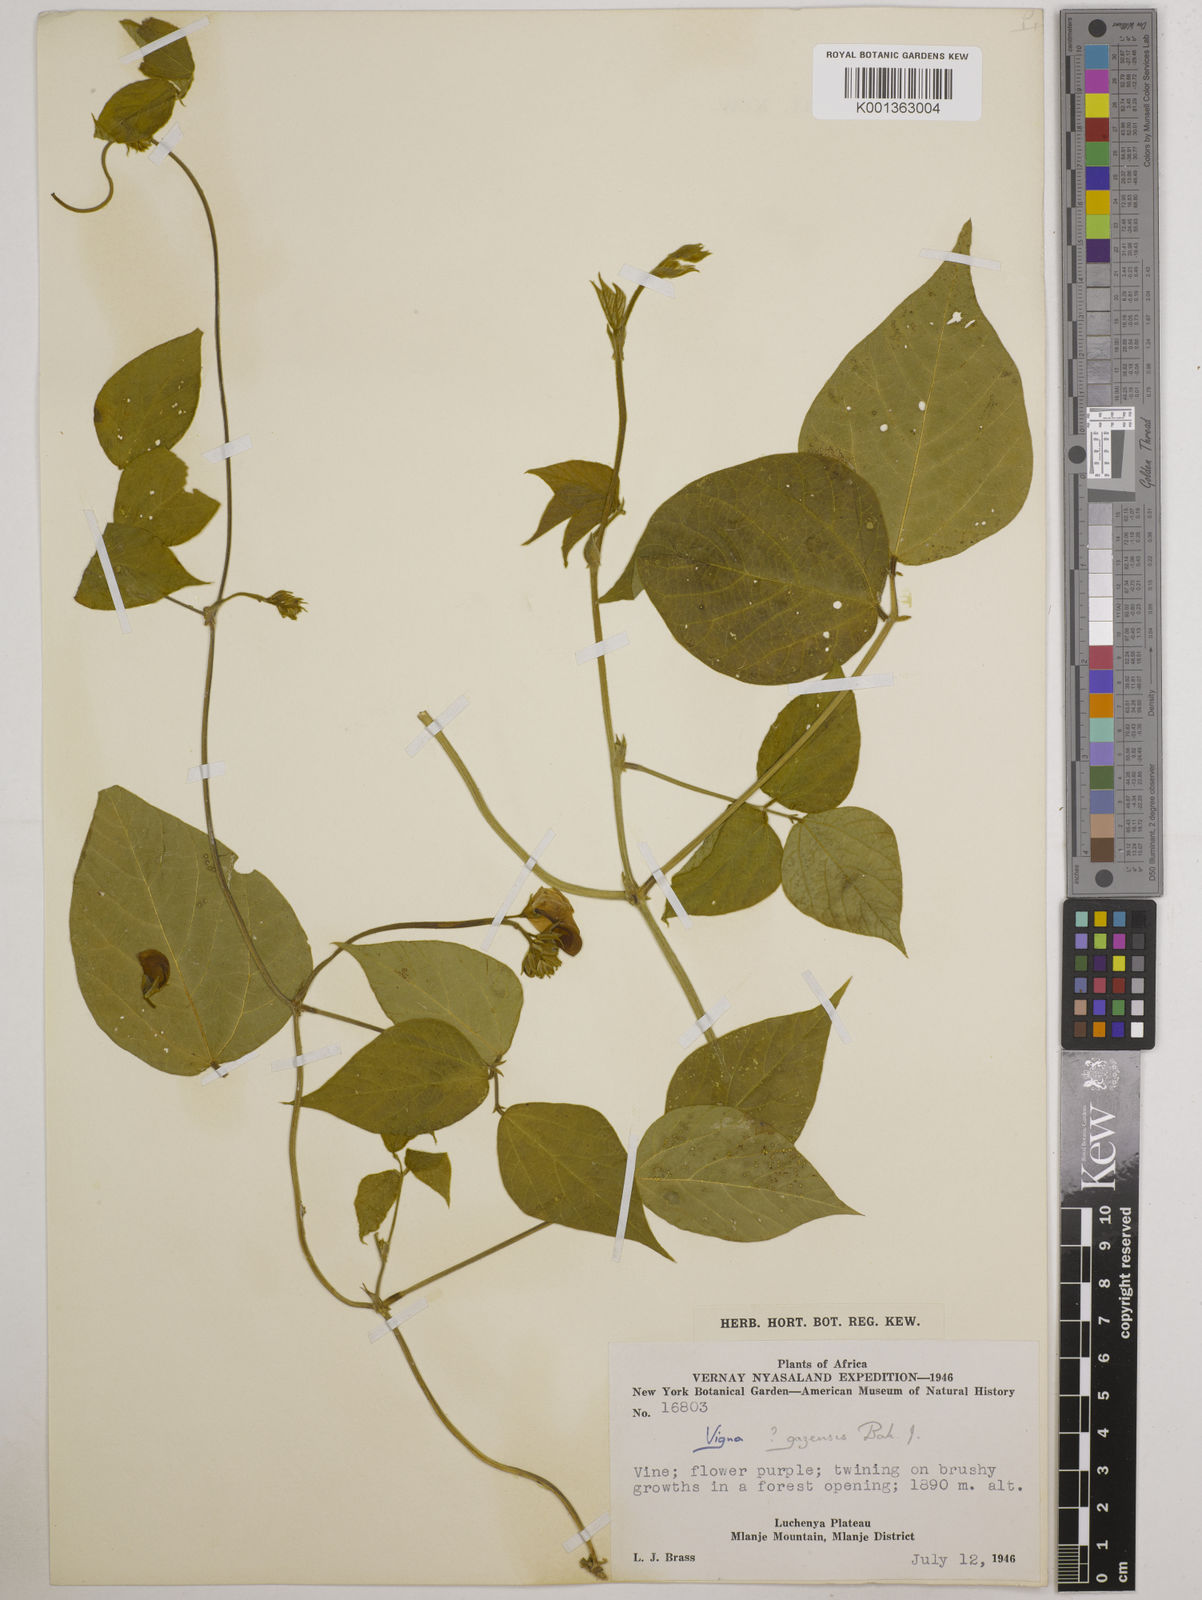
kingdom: Plantae
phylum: Tracheophyta
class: Magnoliopsida
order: Fabales
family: Fabaceae
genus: Vigna
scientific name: Vigna gazensis
